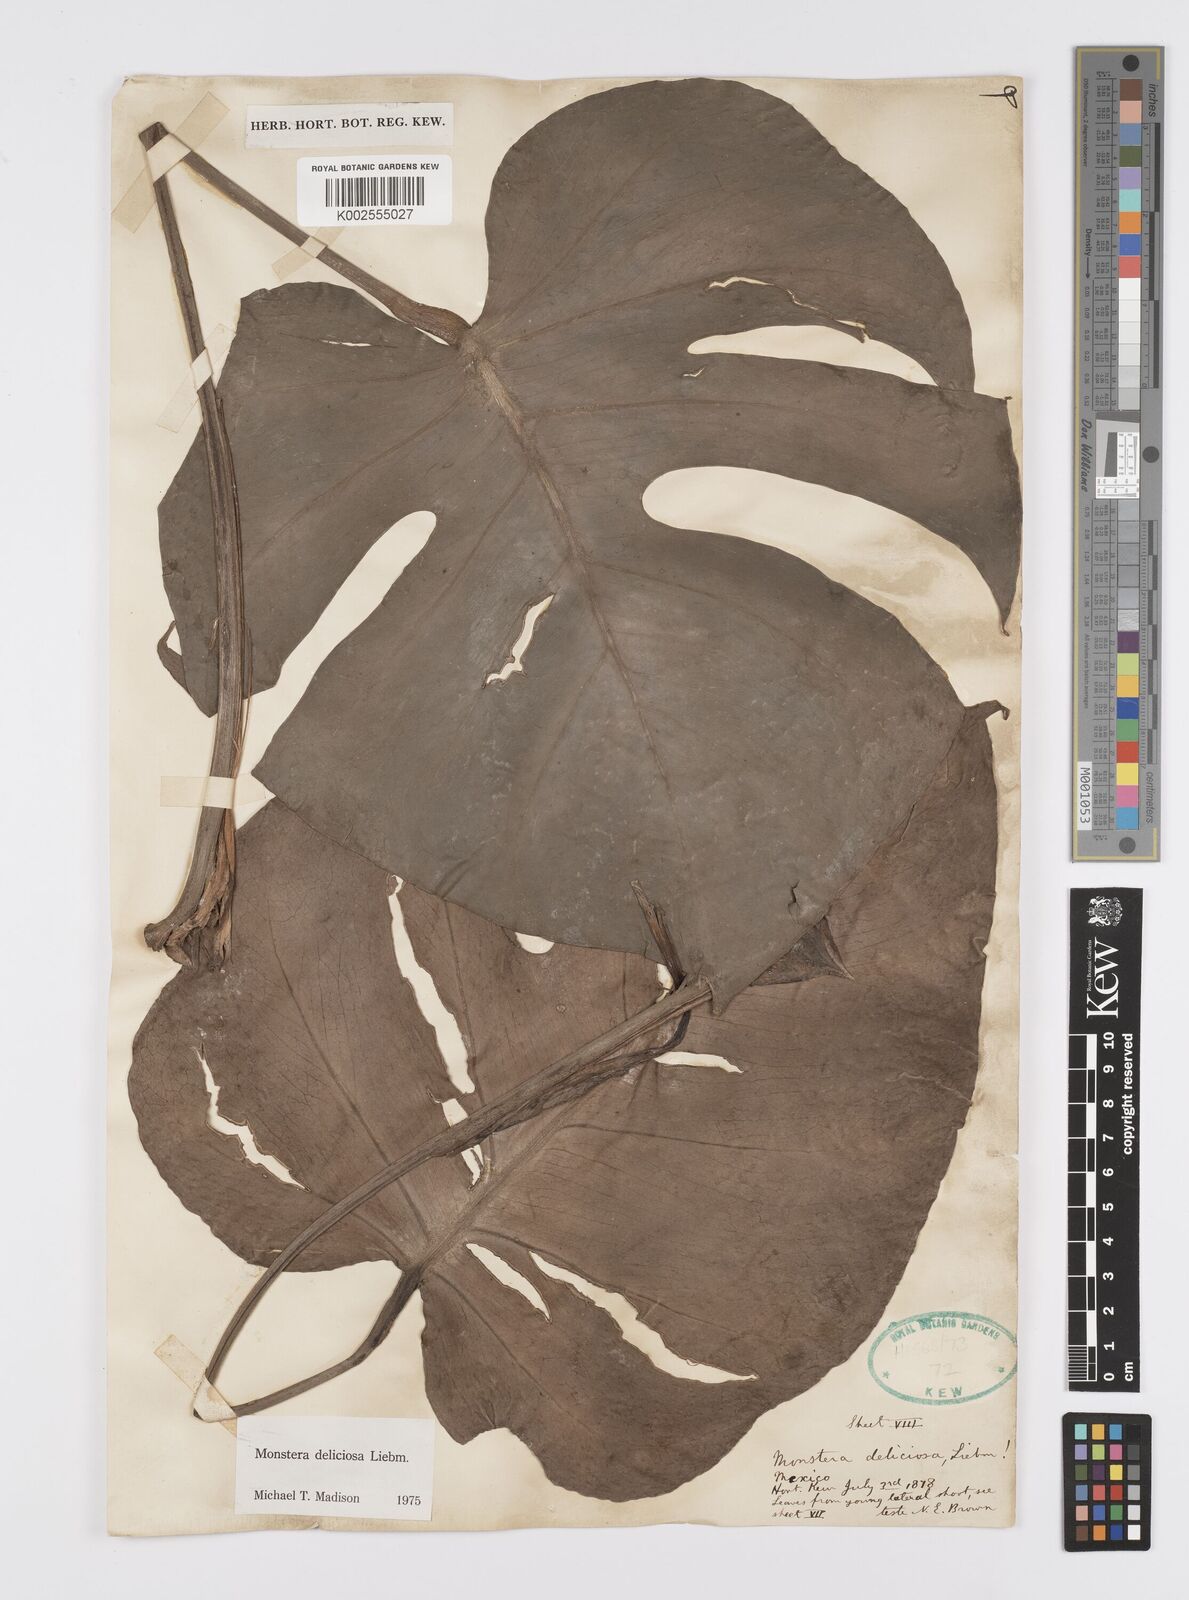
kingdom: Plantae
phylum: Tracheophyta
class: Liliopsida
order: Alismatales
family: Araceae
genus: Monstera
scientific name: Monstera deliciosa
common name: Cut-leaf-philodendron
